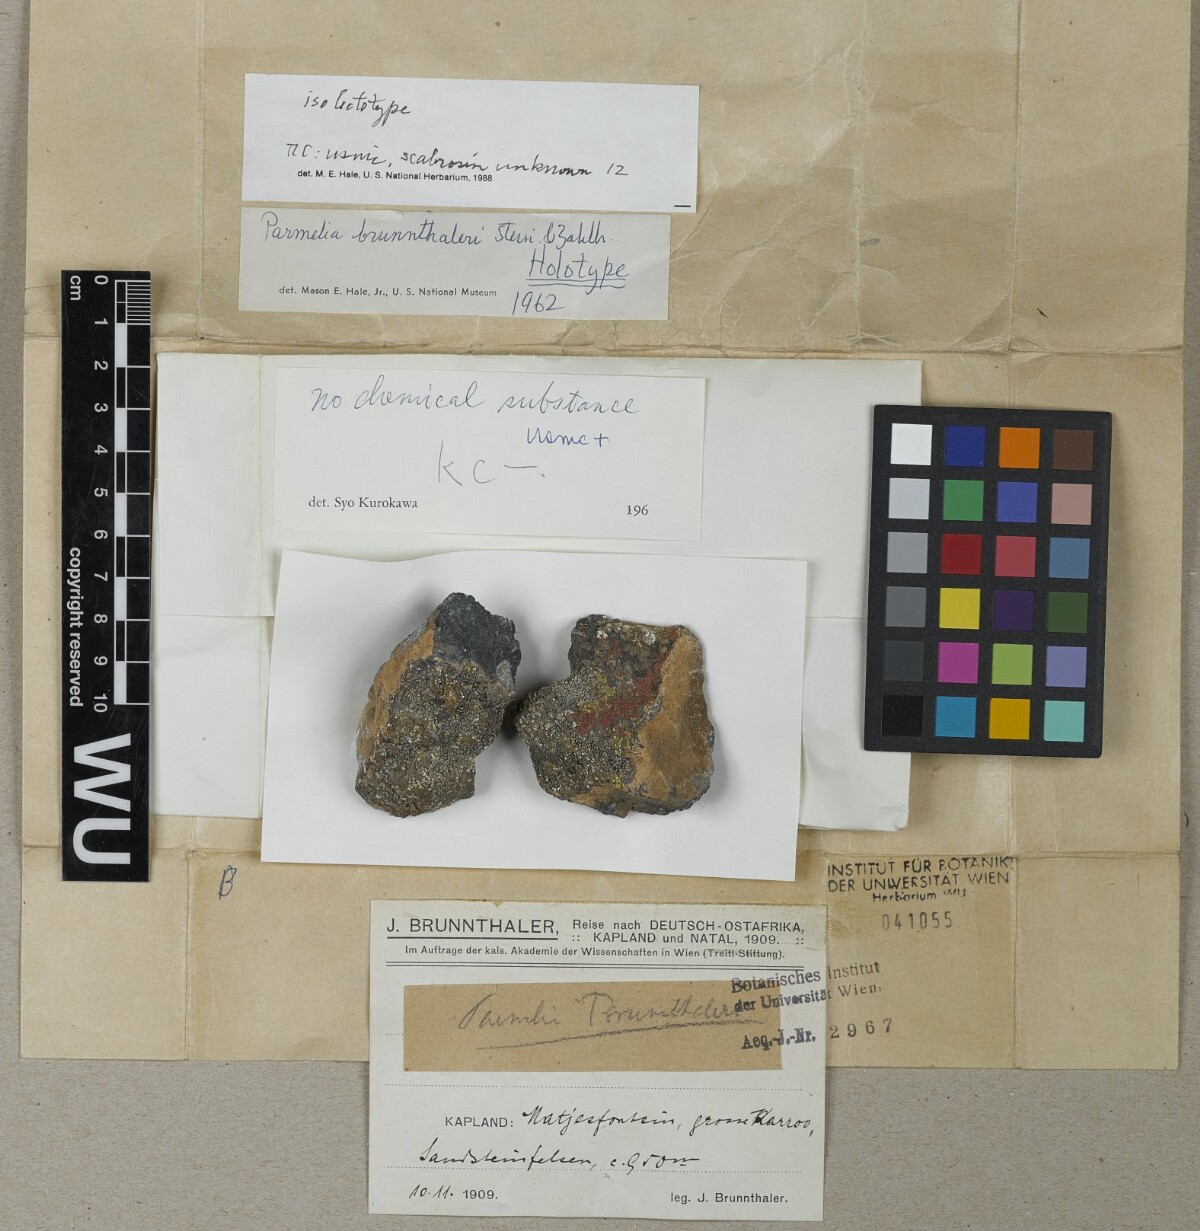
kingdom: Fungi
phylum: Ascomycota
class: Lecanoromycetes
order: Lecanorales
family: Parmeliaceae
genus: Xanthoparmelia
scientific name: Xanthoparmelia brunnthaleri
